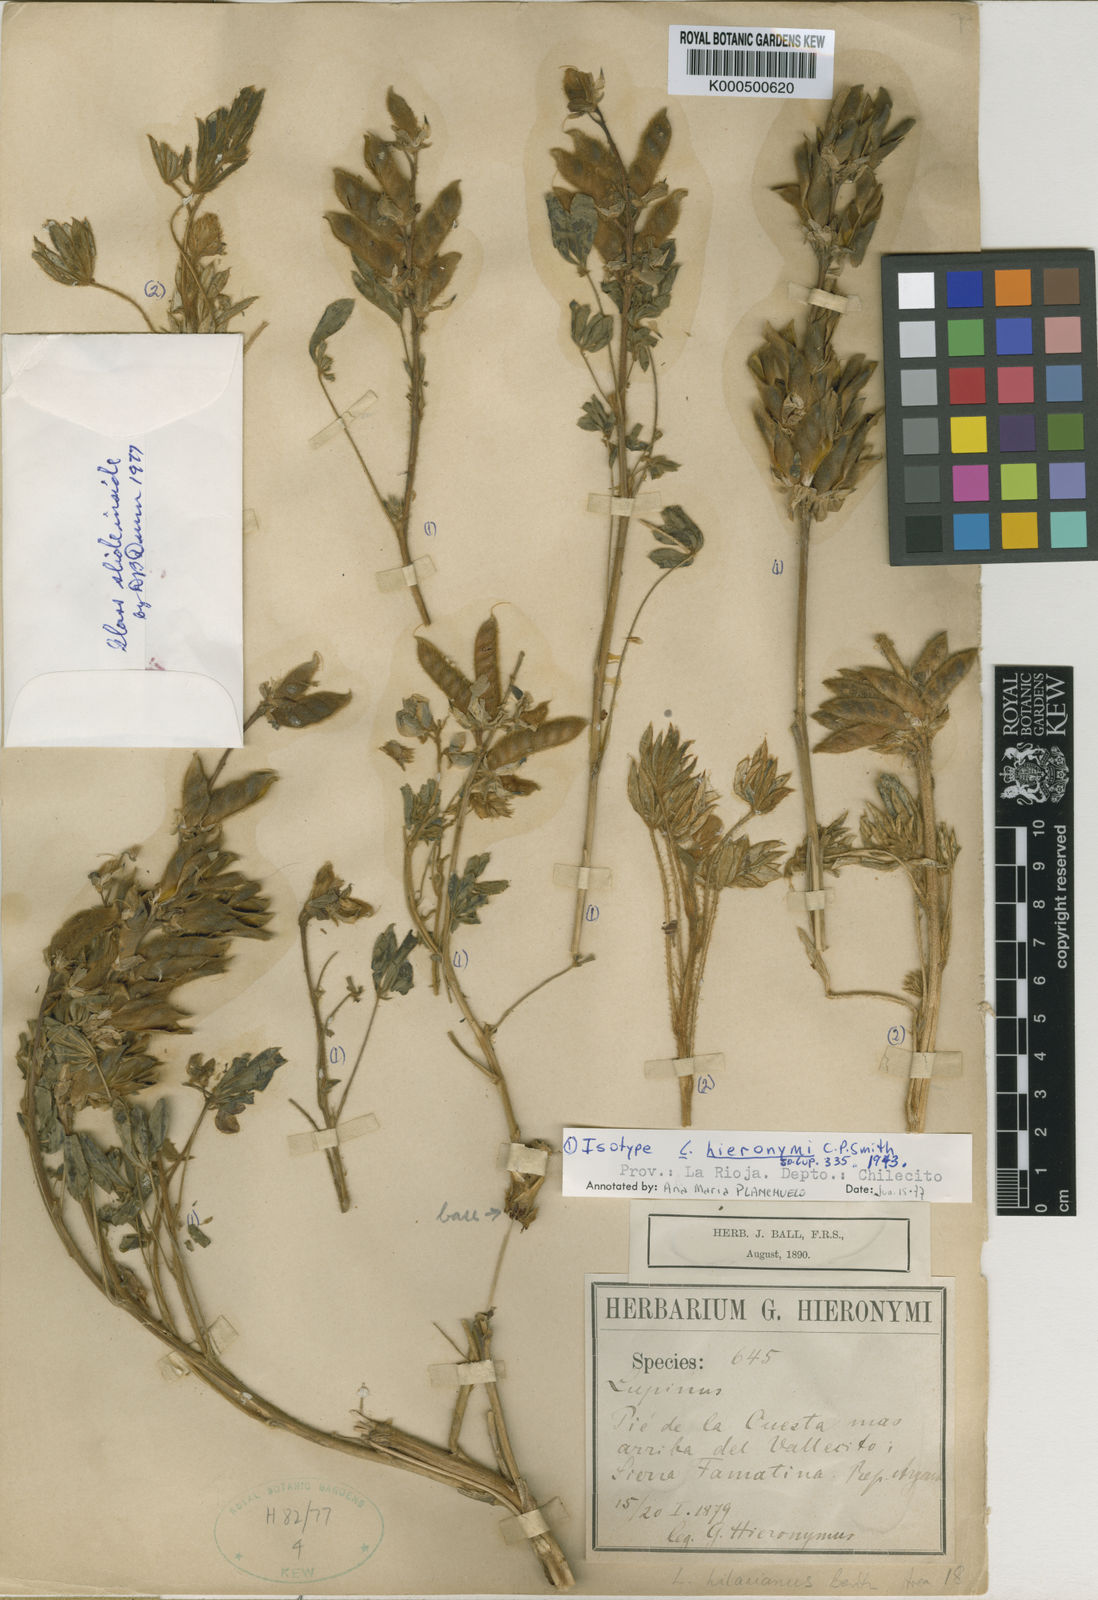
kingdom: Plantae
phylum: Tracheophyta
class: Magnoliopsida
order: Fabales
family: Fabaceae
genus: Lupinus
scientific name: Lupinus heptaphyllus
